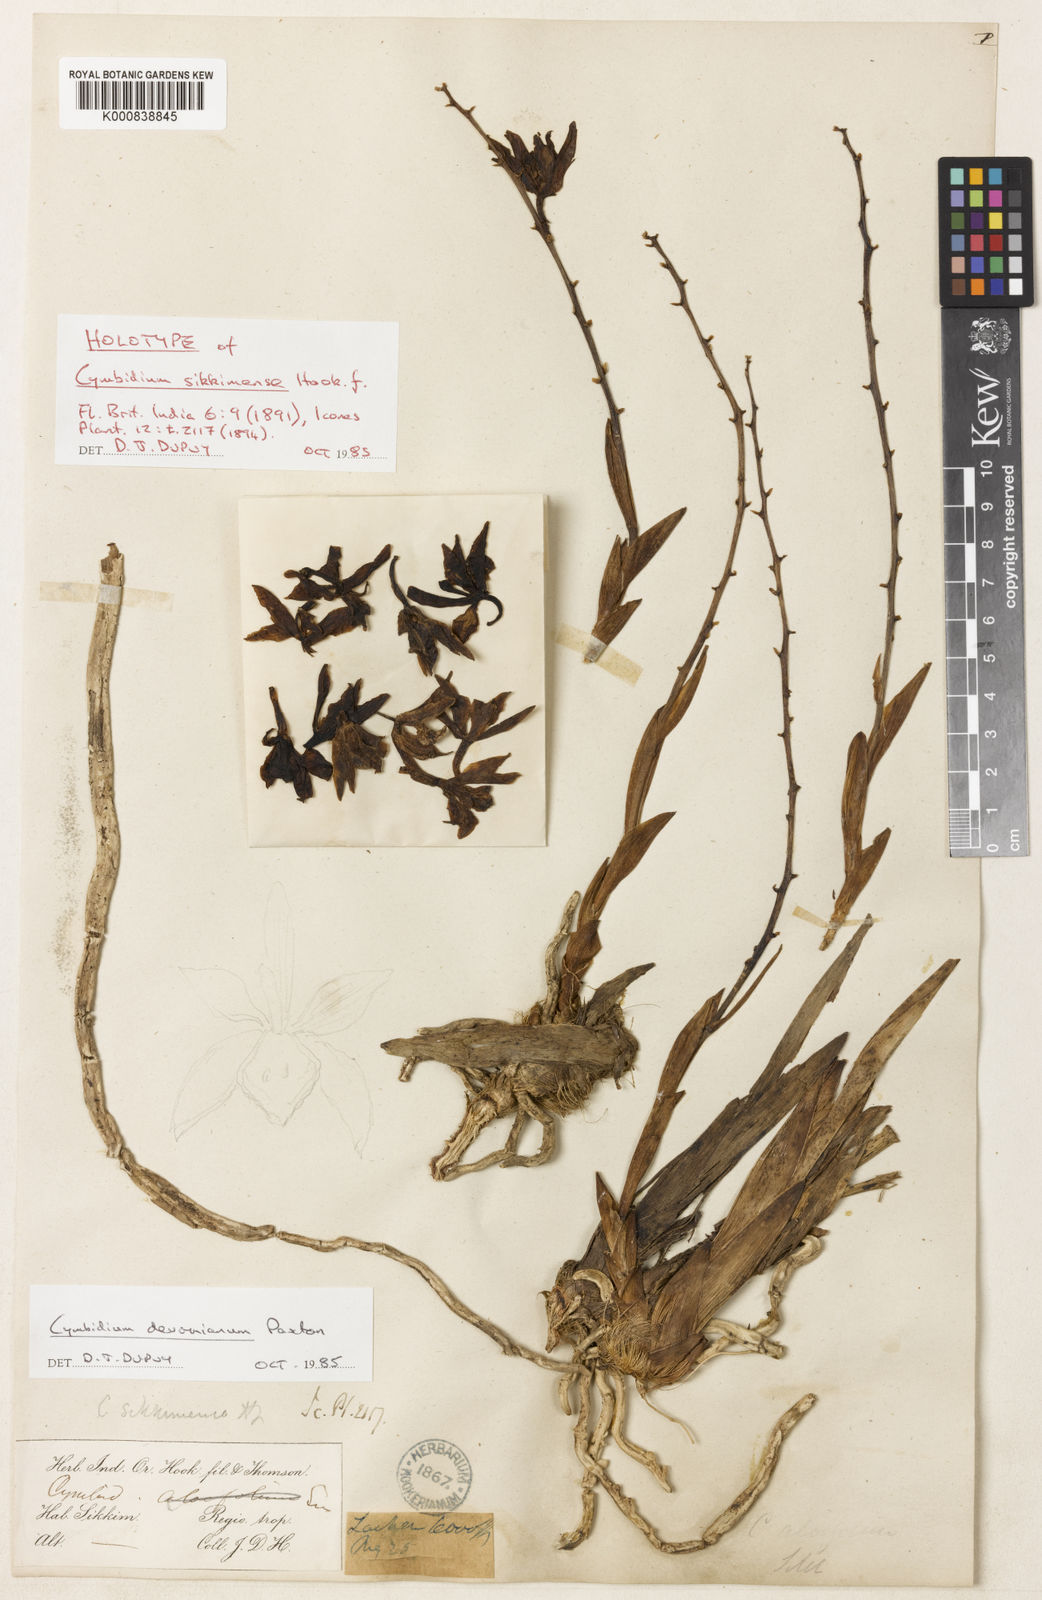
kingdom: Plantae
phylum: Tracheophyta
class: Liliopsida
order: Asparagales
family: Orchidaceae
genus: Cymbidium
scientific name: Cymbidium devonianum
